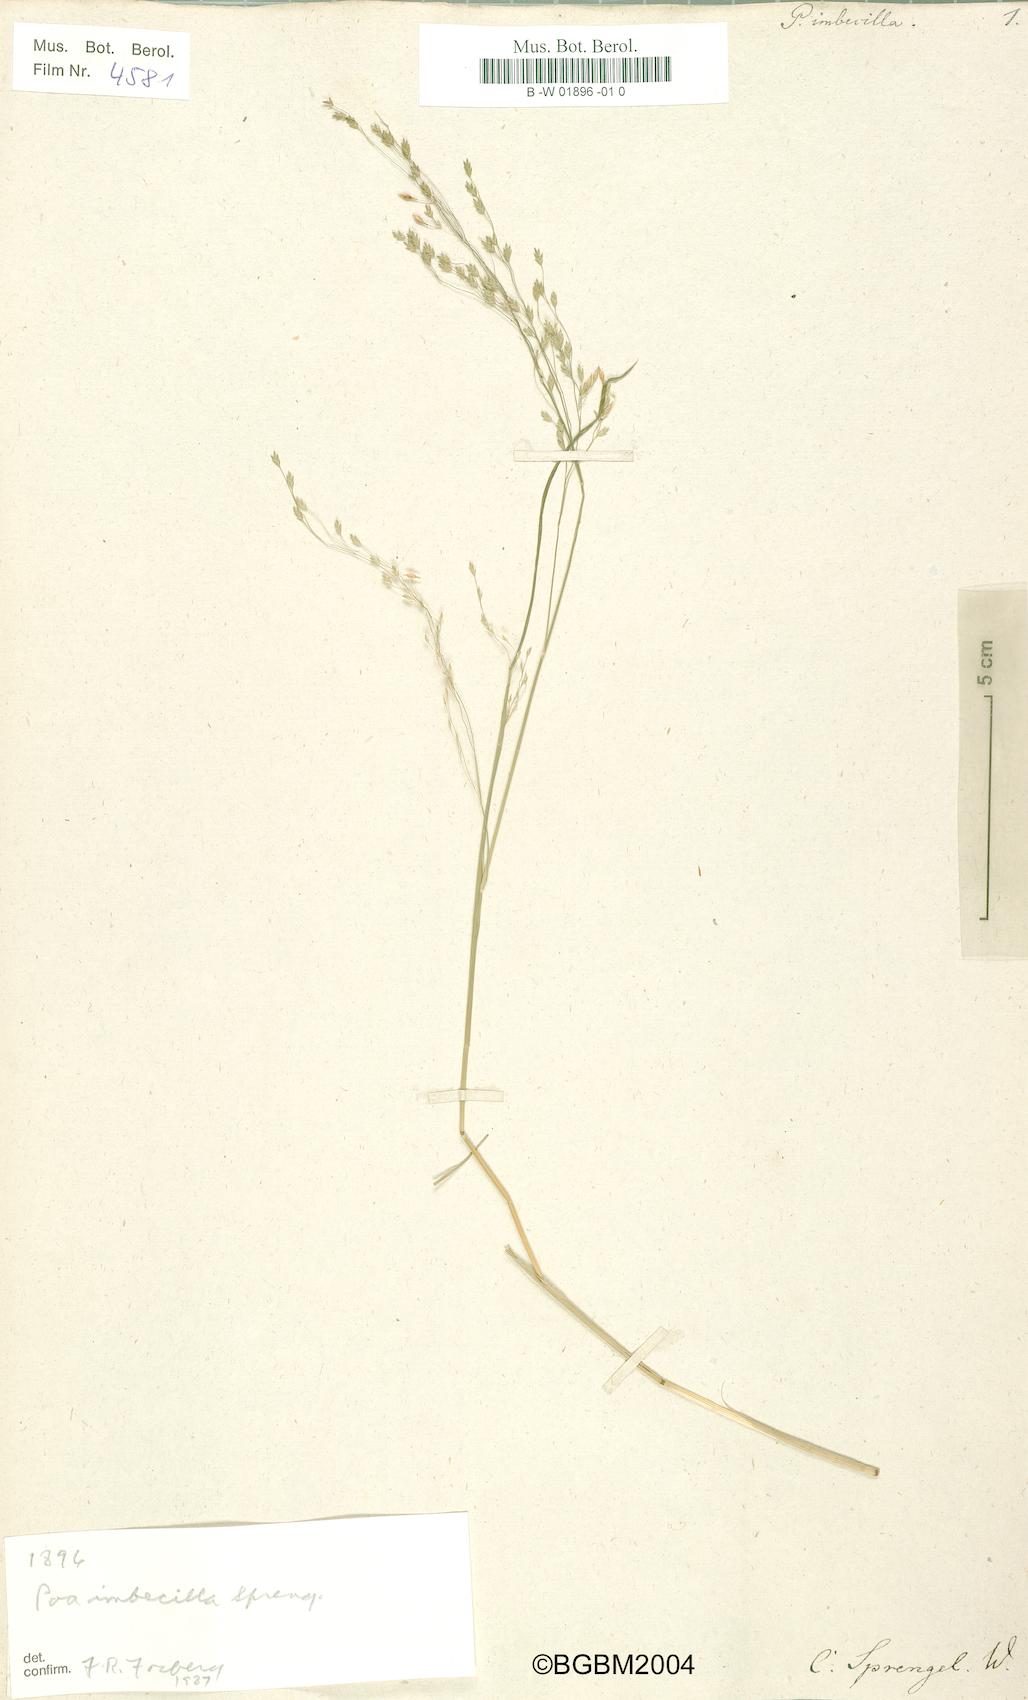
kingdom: Plantae
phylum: Tracheophyta
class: Liliopsida
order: Poales
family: Poaceae
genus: Poa
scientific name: Poa imbecilla
